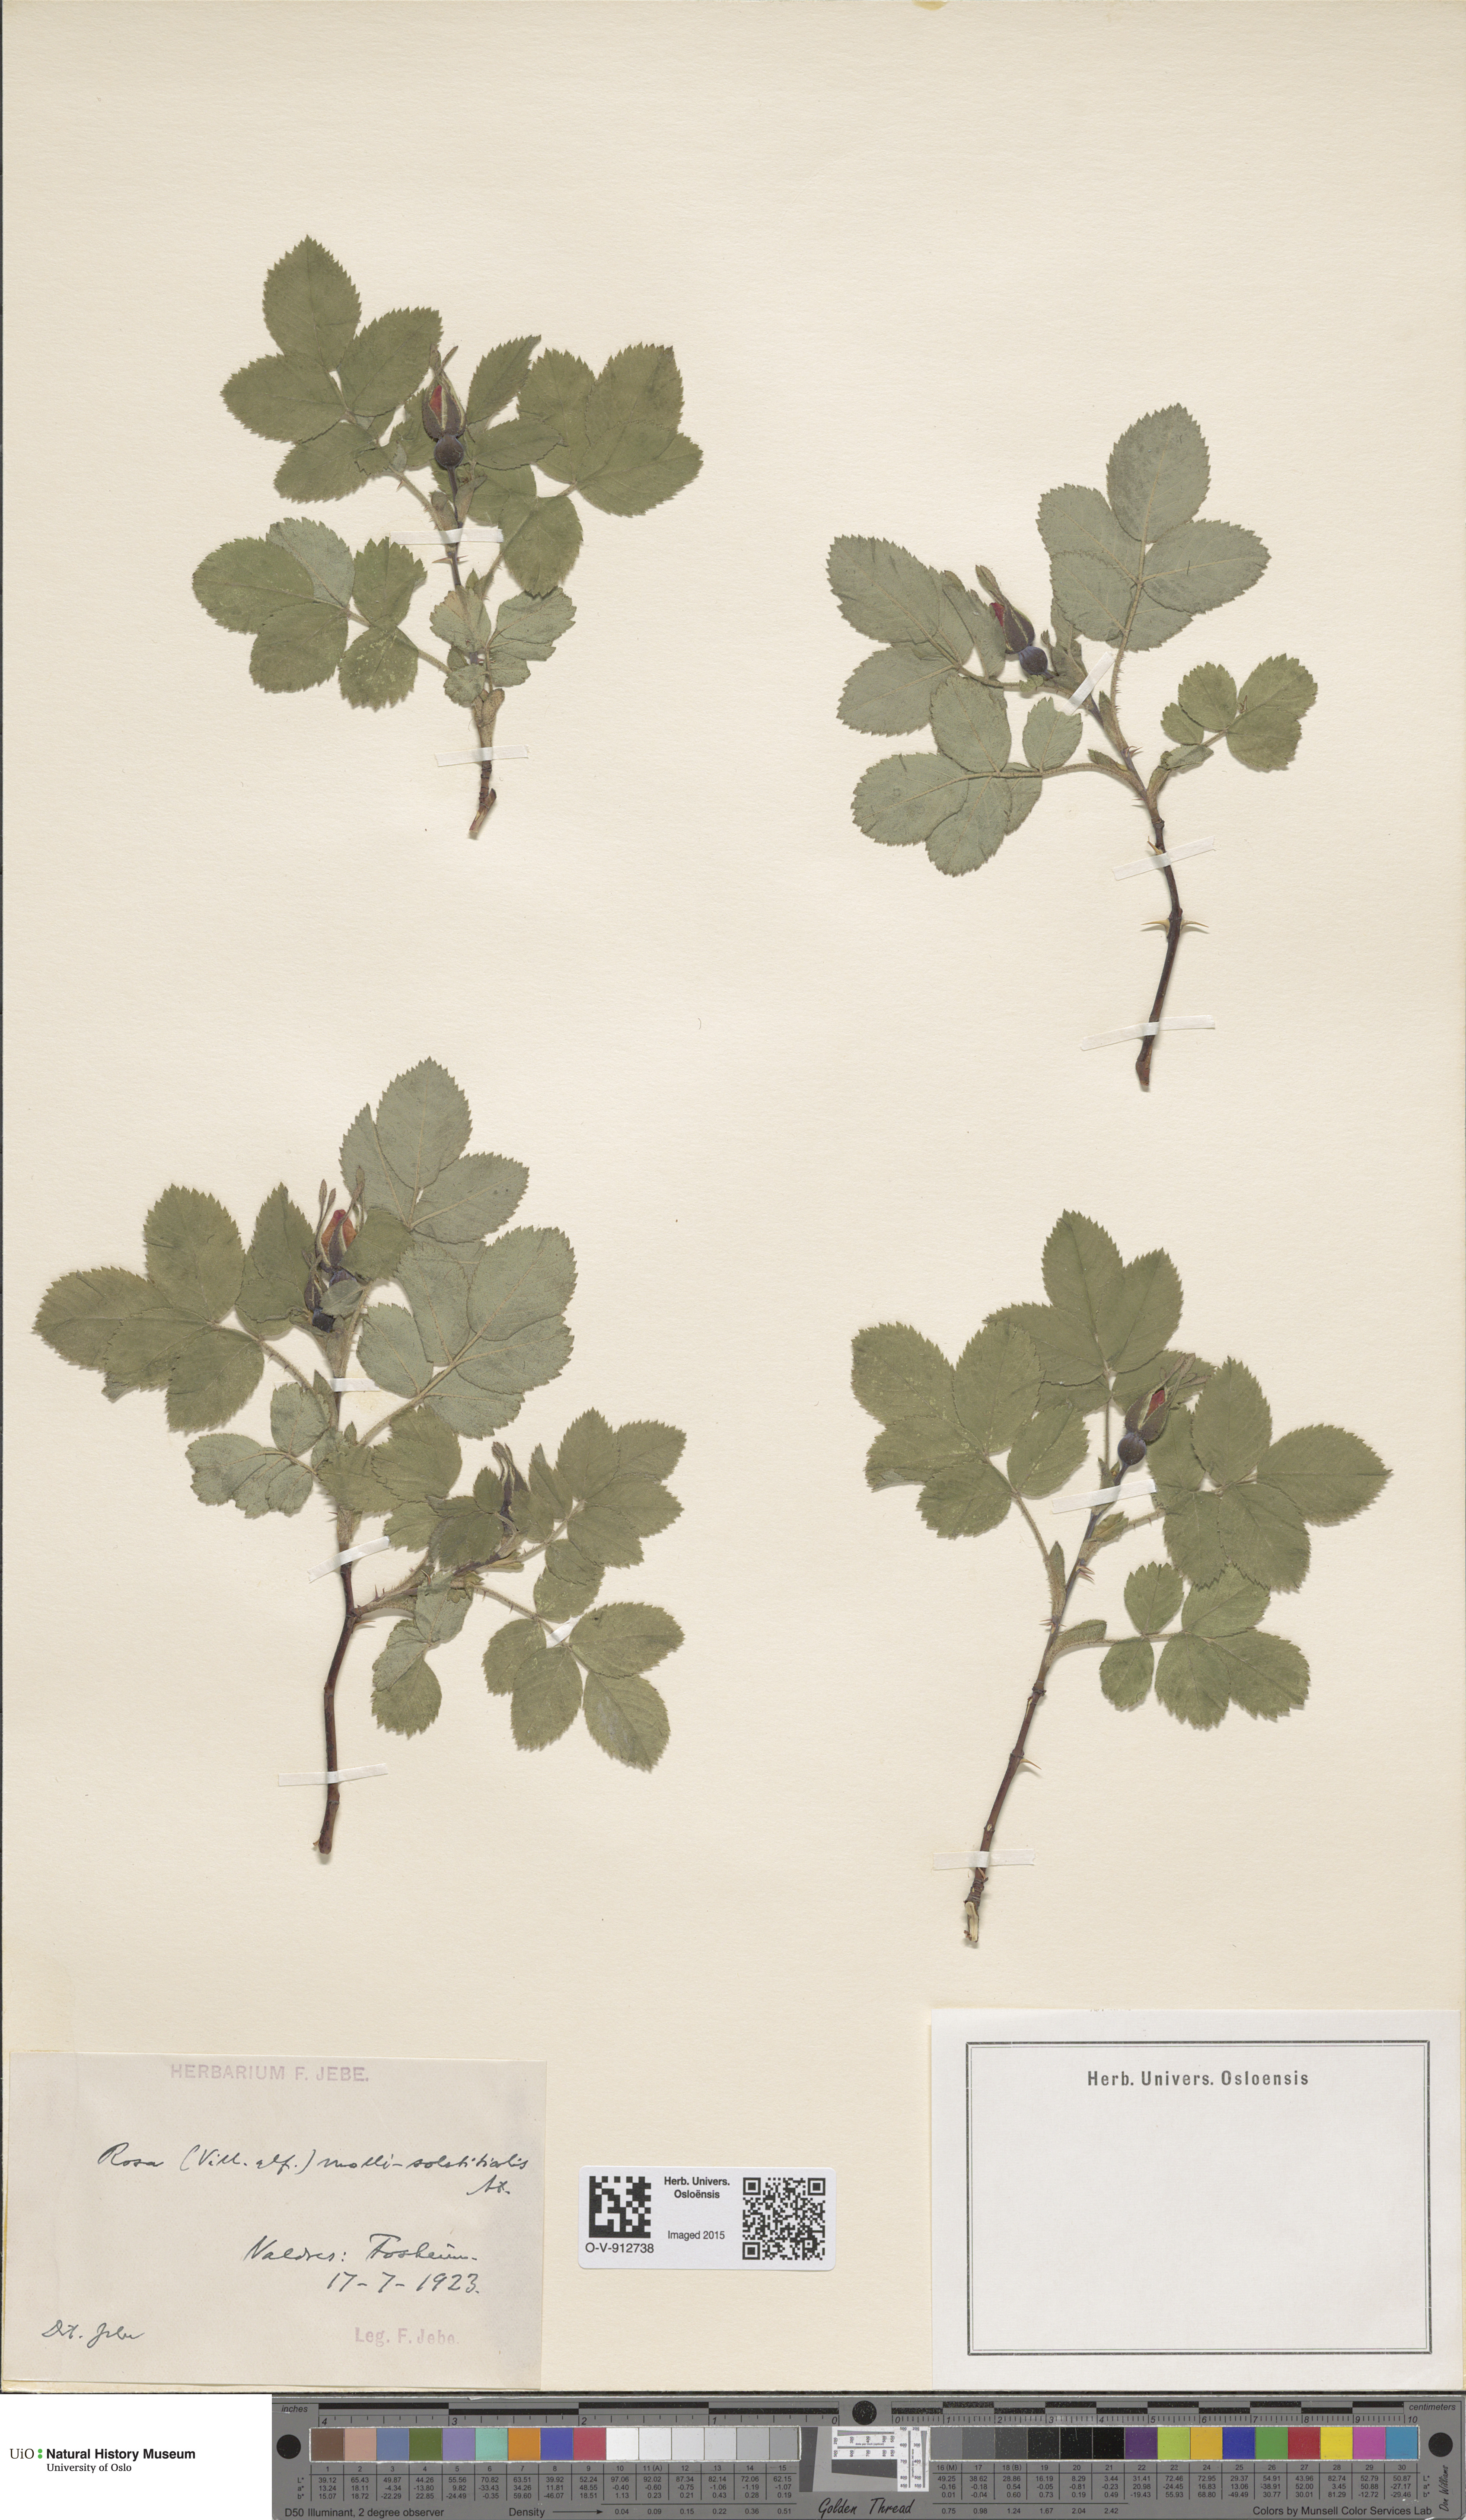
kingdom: Plantae
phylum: Tracheophyta
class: Magnoliopsida
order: Rosales
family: Rosaceae
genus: Rosa
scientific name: Rosa mollis
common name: Rose
